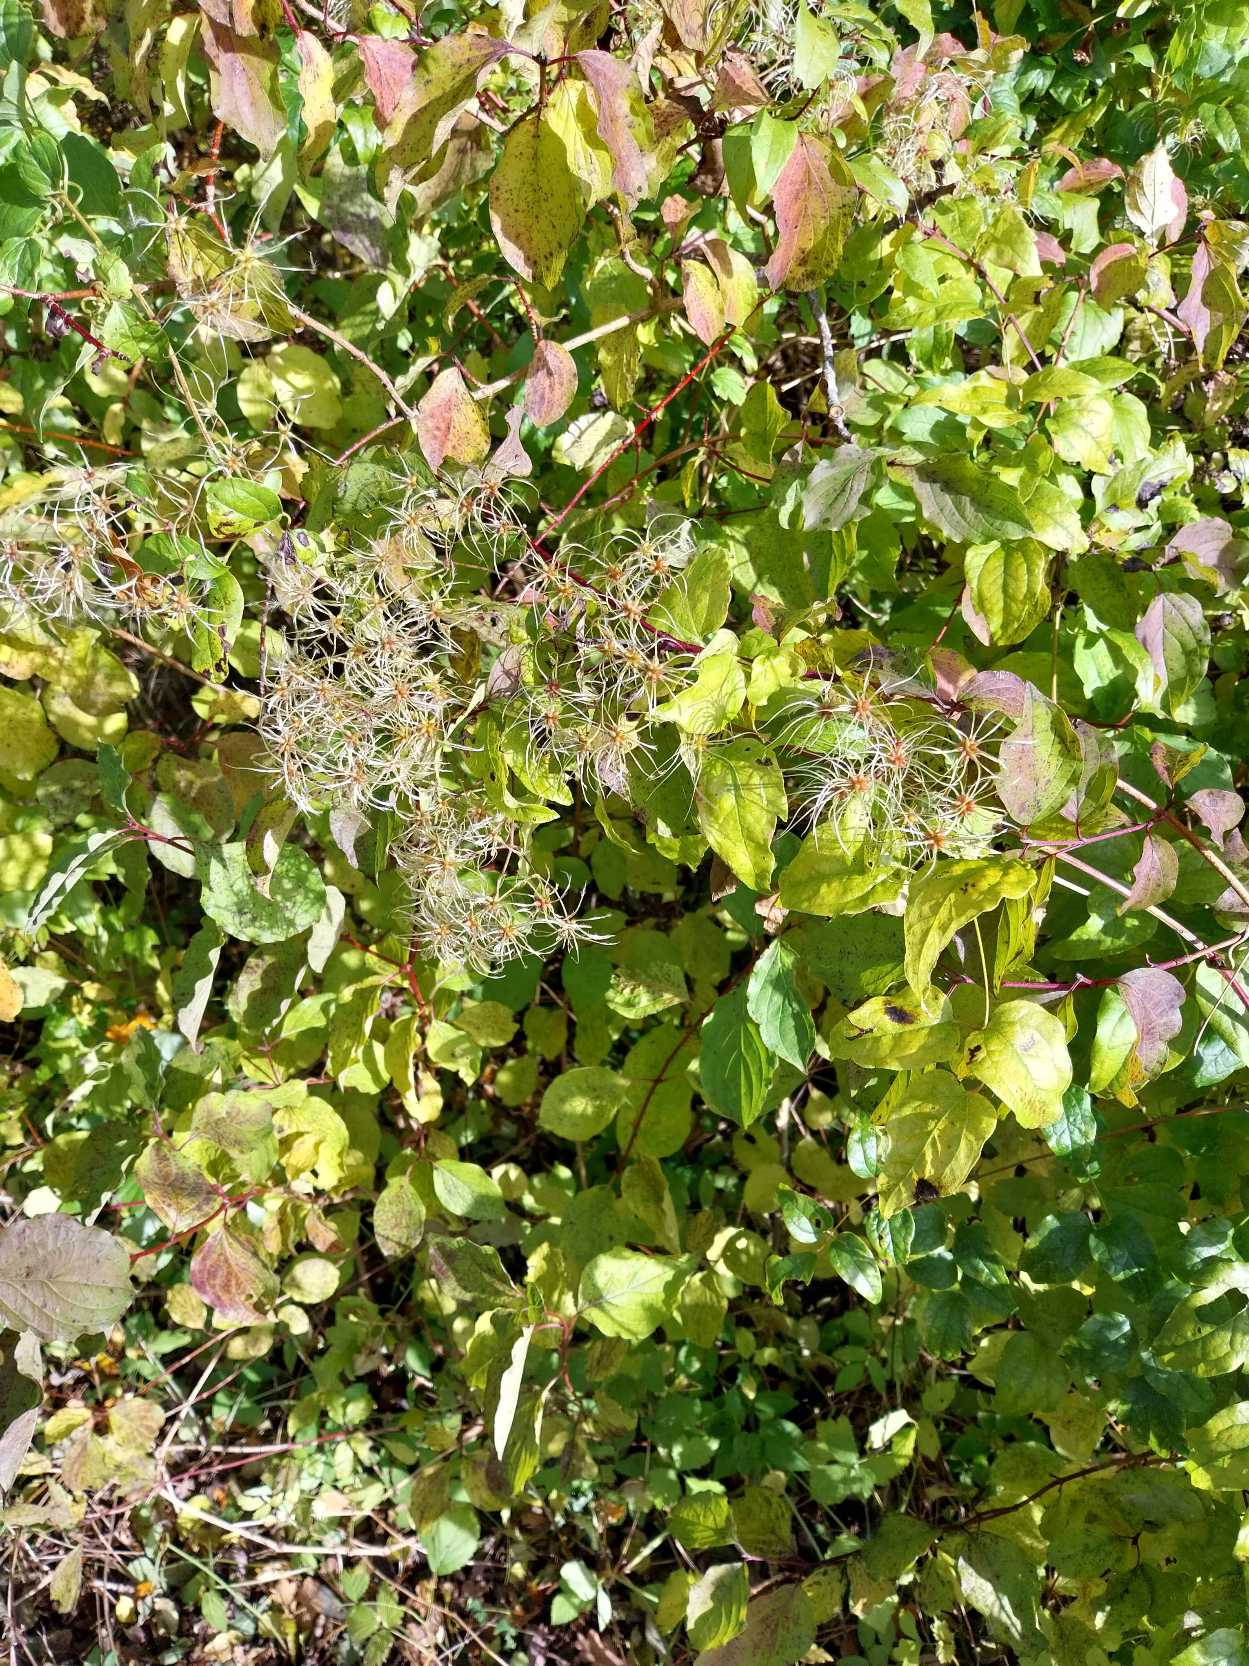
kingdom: Plantae
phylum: Tracheophyta
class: Magnoliopsida
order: Ranunculales
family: Ranunculaceae
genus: Clematis
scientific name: Clematis vitalba
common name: Skovranke
